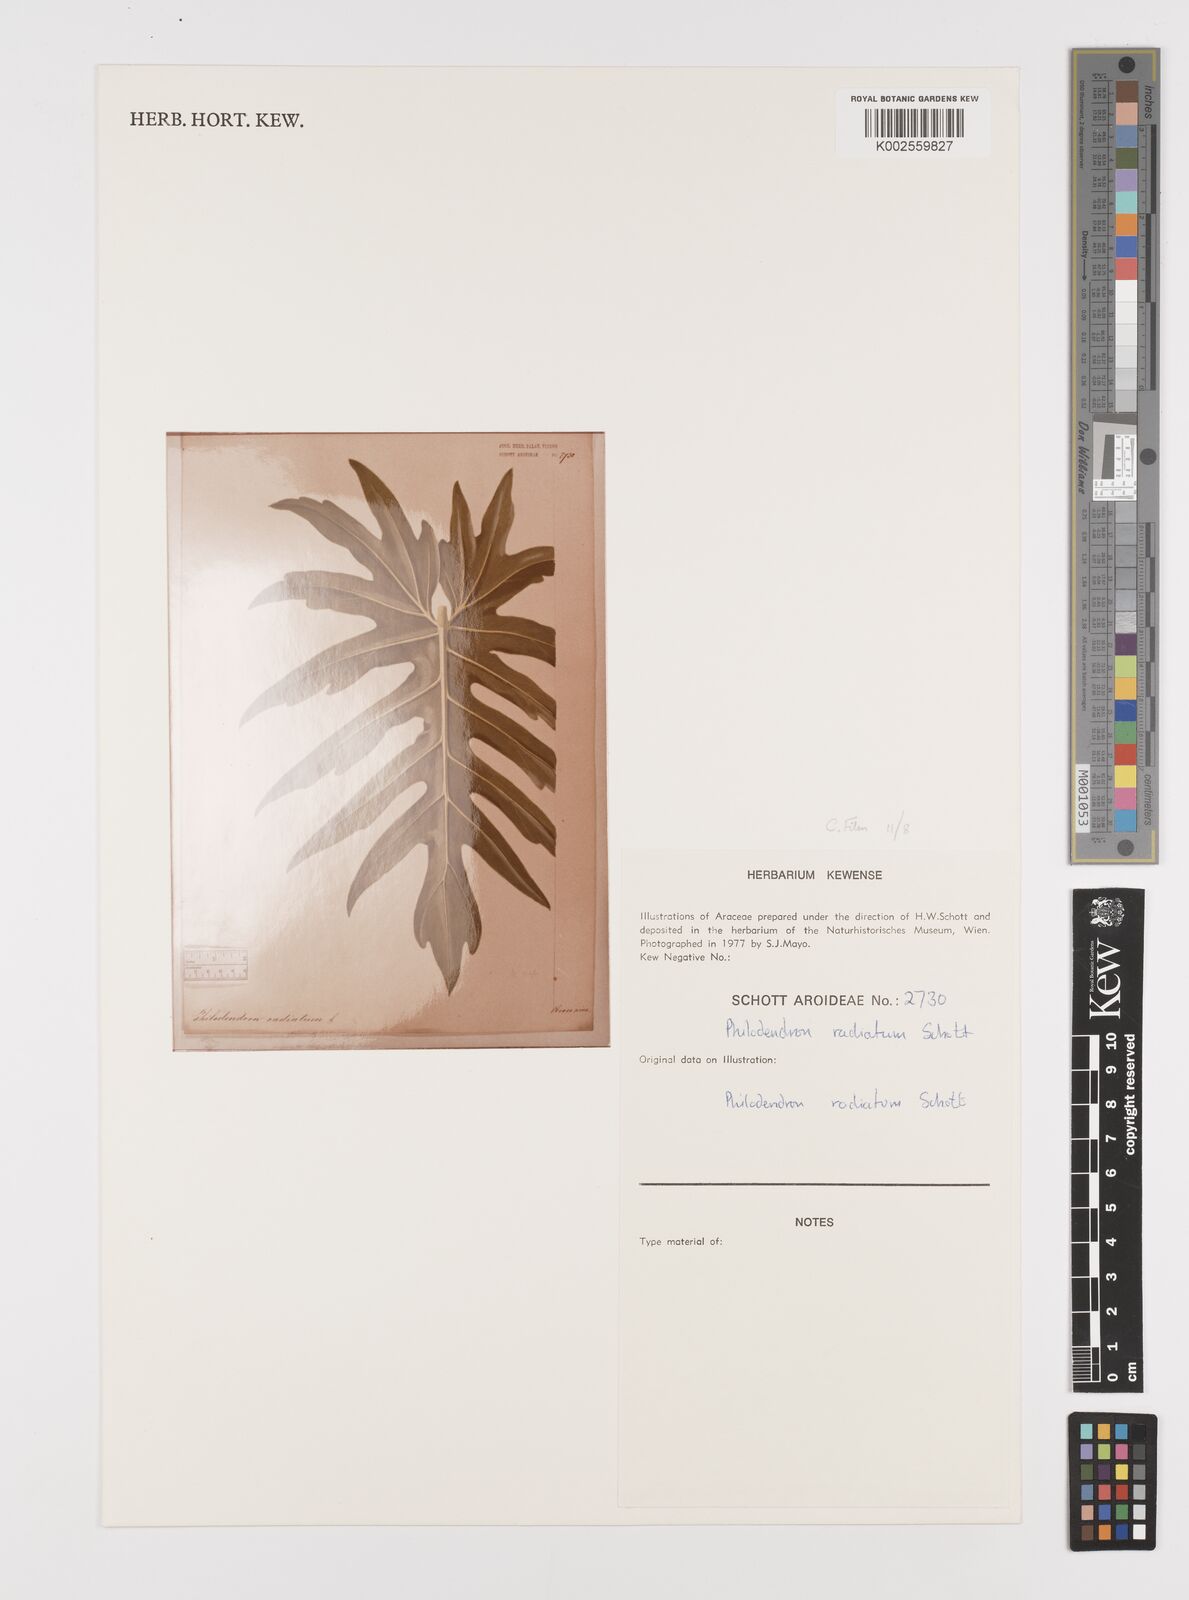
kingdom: Plantae
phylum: Tracheophyta
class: Liliopsida
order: Alismatales
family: Araceae
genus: Philodendron
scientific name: Philodendron radiatum
